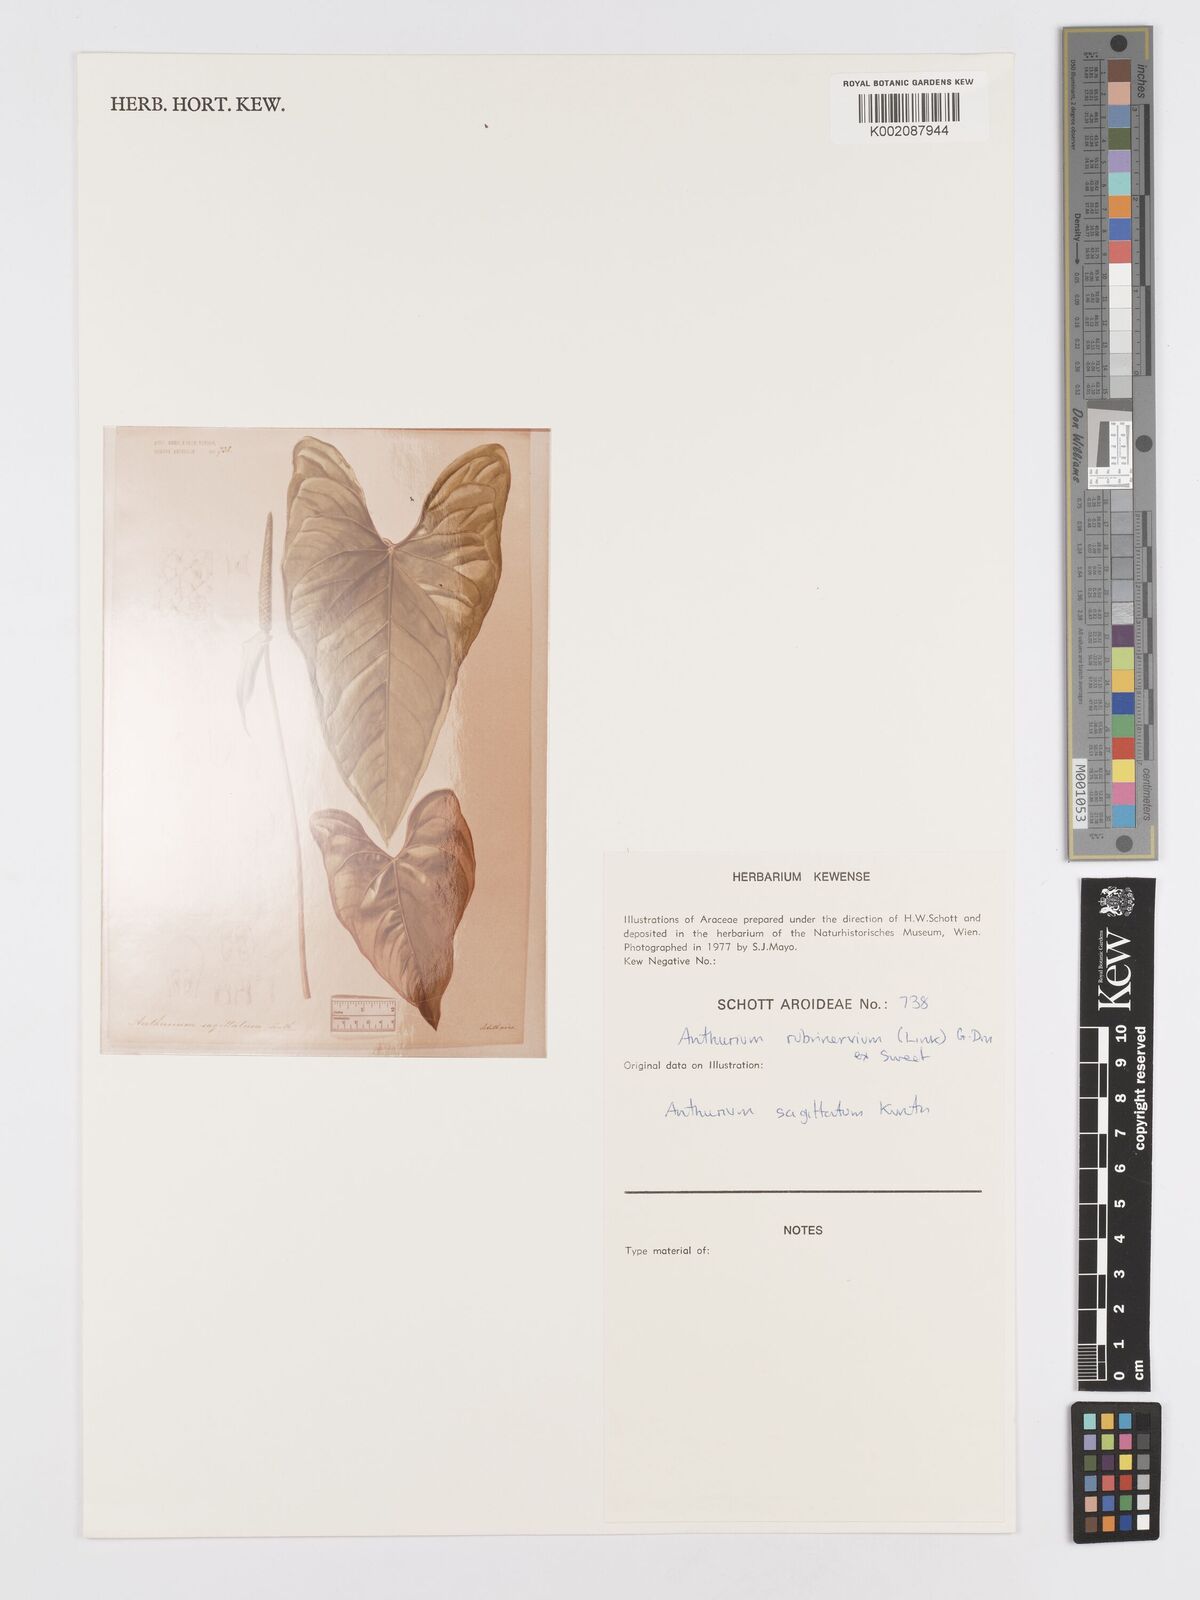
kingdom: Plantae
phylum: Tracheophyta
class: Liliopsida
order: Alismatales
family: Araceae
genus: Anthurium
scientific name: Anthurium sagittatum
